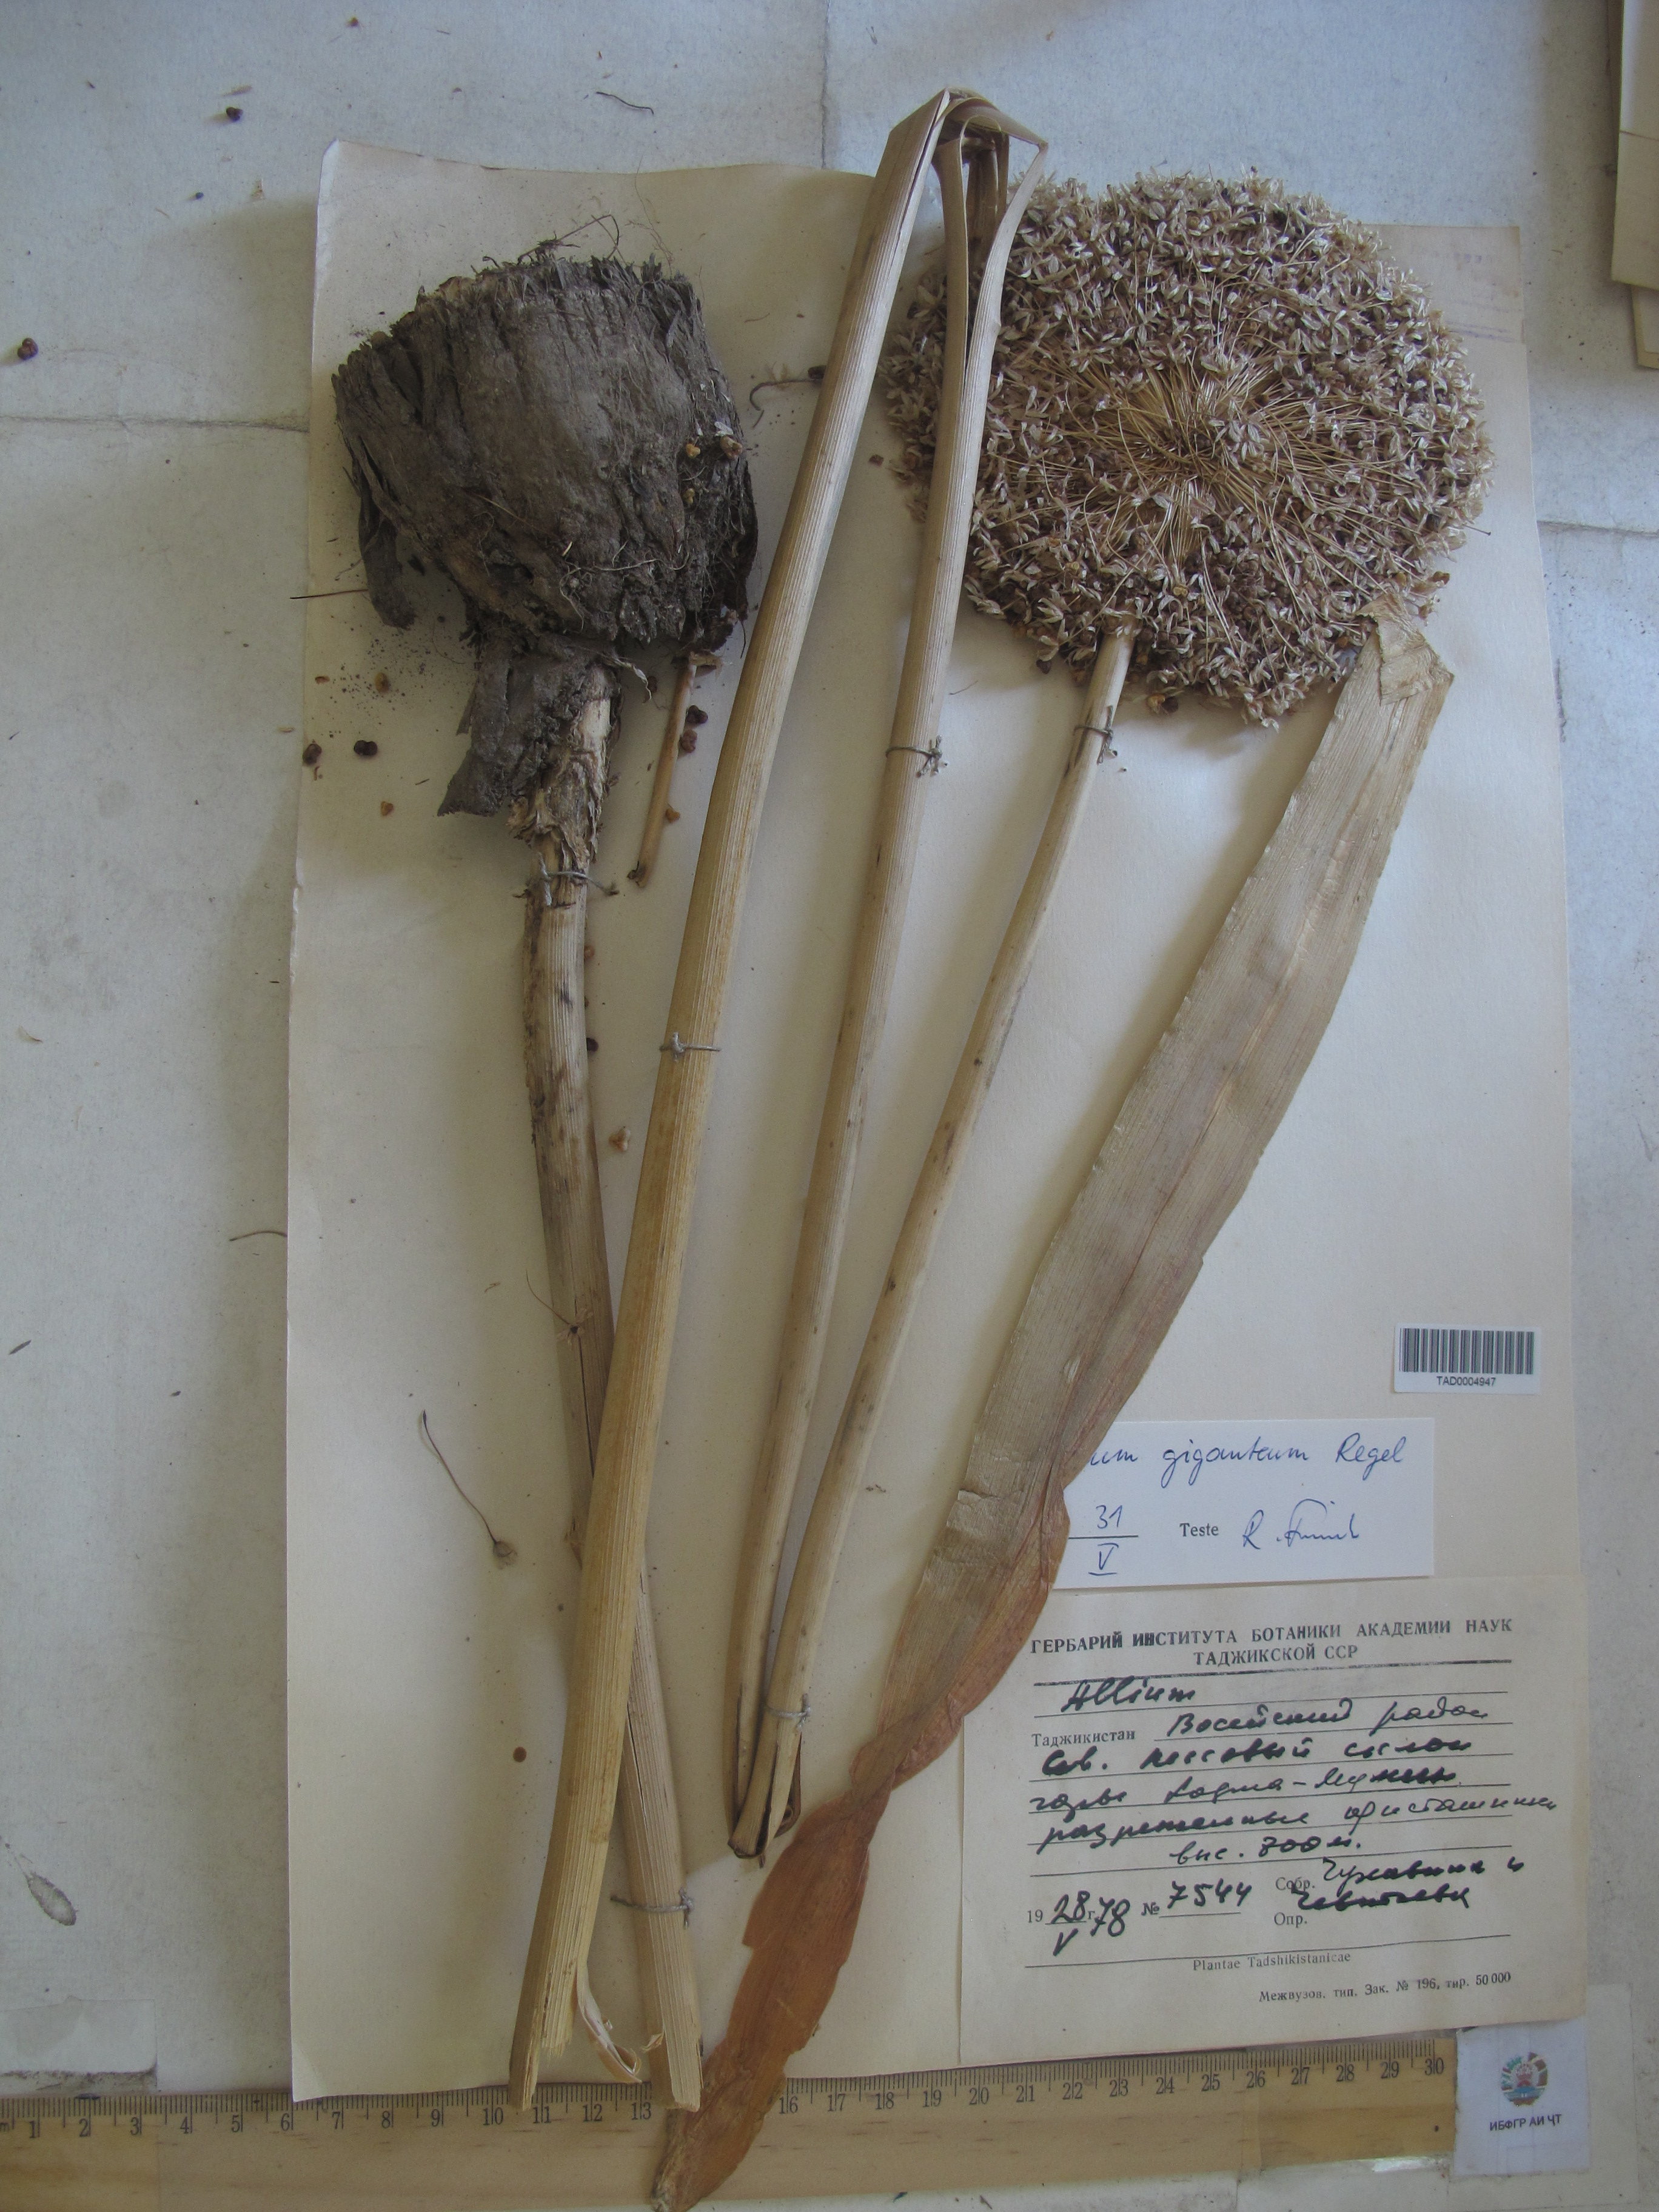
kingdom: Plantae
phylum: Tracheophyta
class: Liliopsida
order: Asparagales
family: Amaryllidaceae
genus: Allium
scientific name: Allium giganteum
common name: Giant onion
